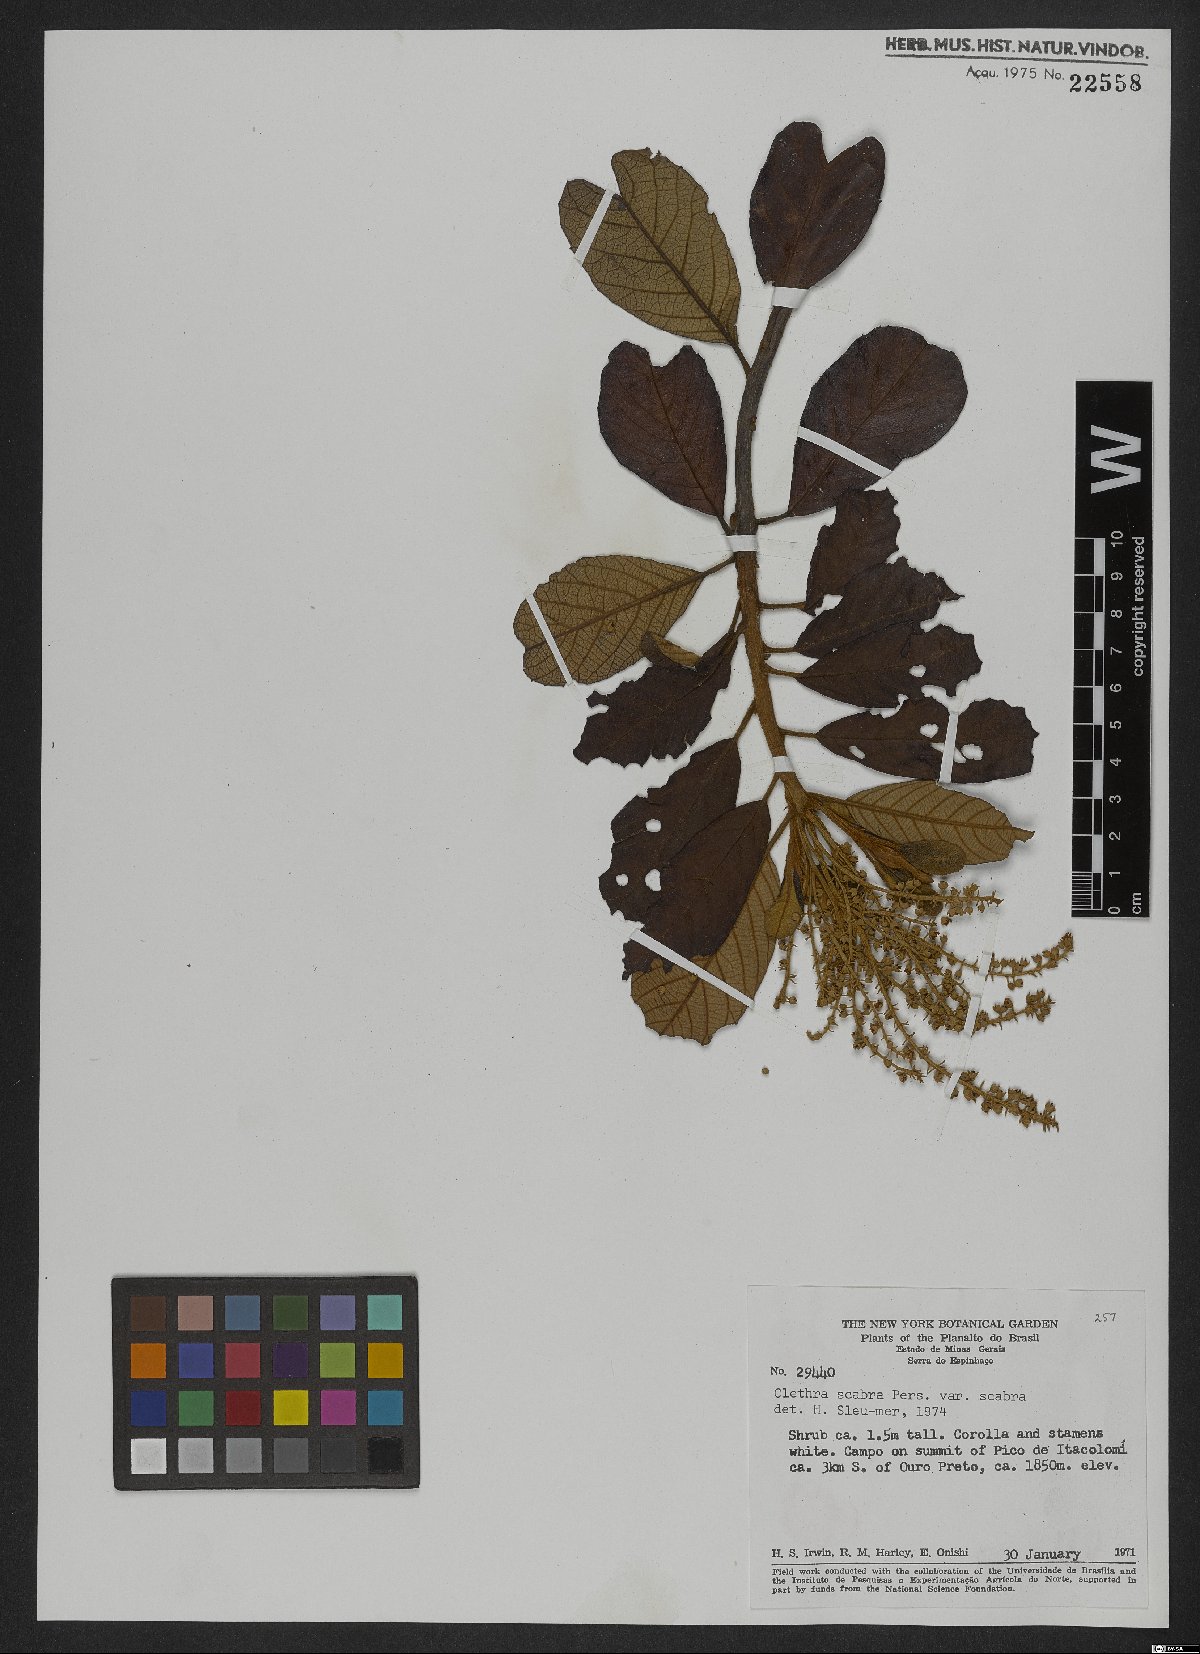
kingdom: Plantae
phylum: Tracheophyta
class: Magnoliopsida
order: Ericales
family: Clethraceae
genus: Clethra
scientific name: Clethra scabra
